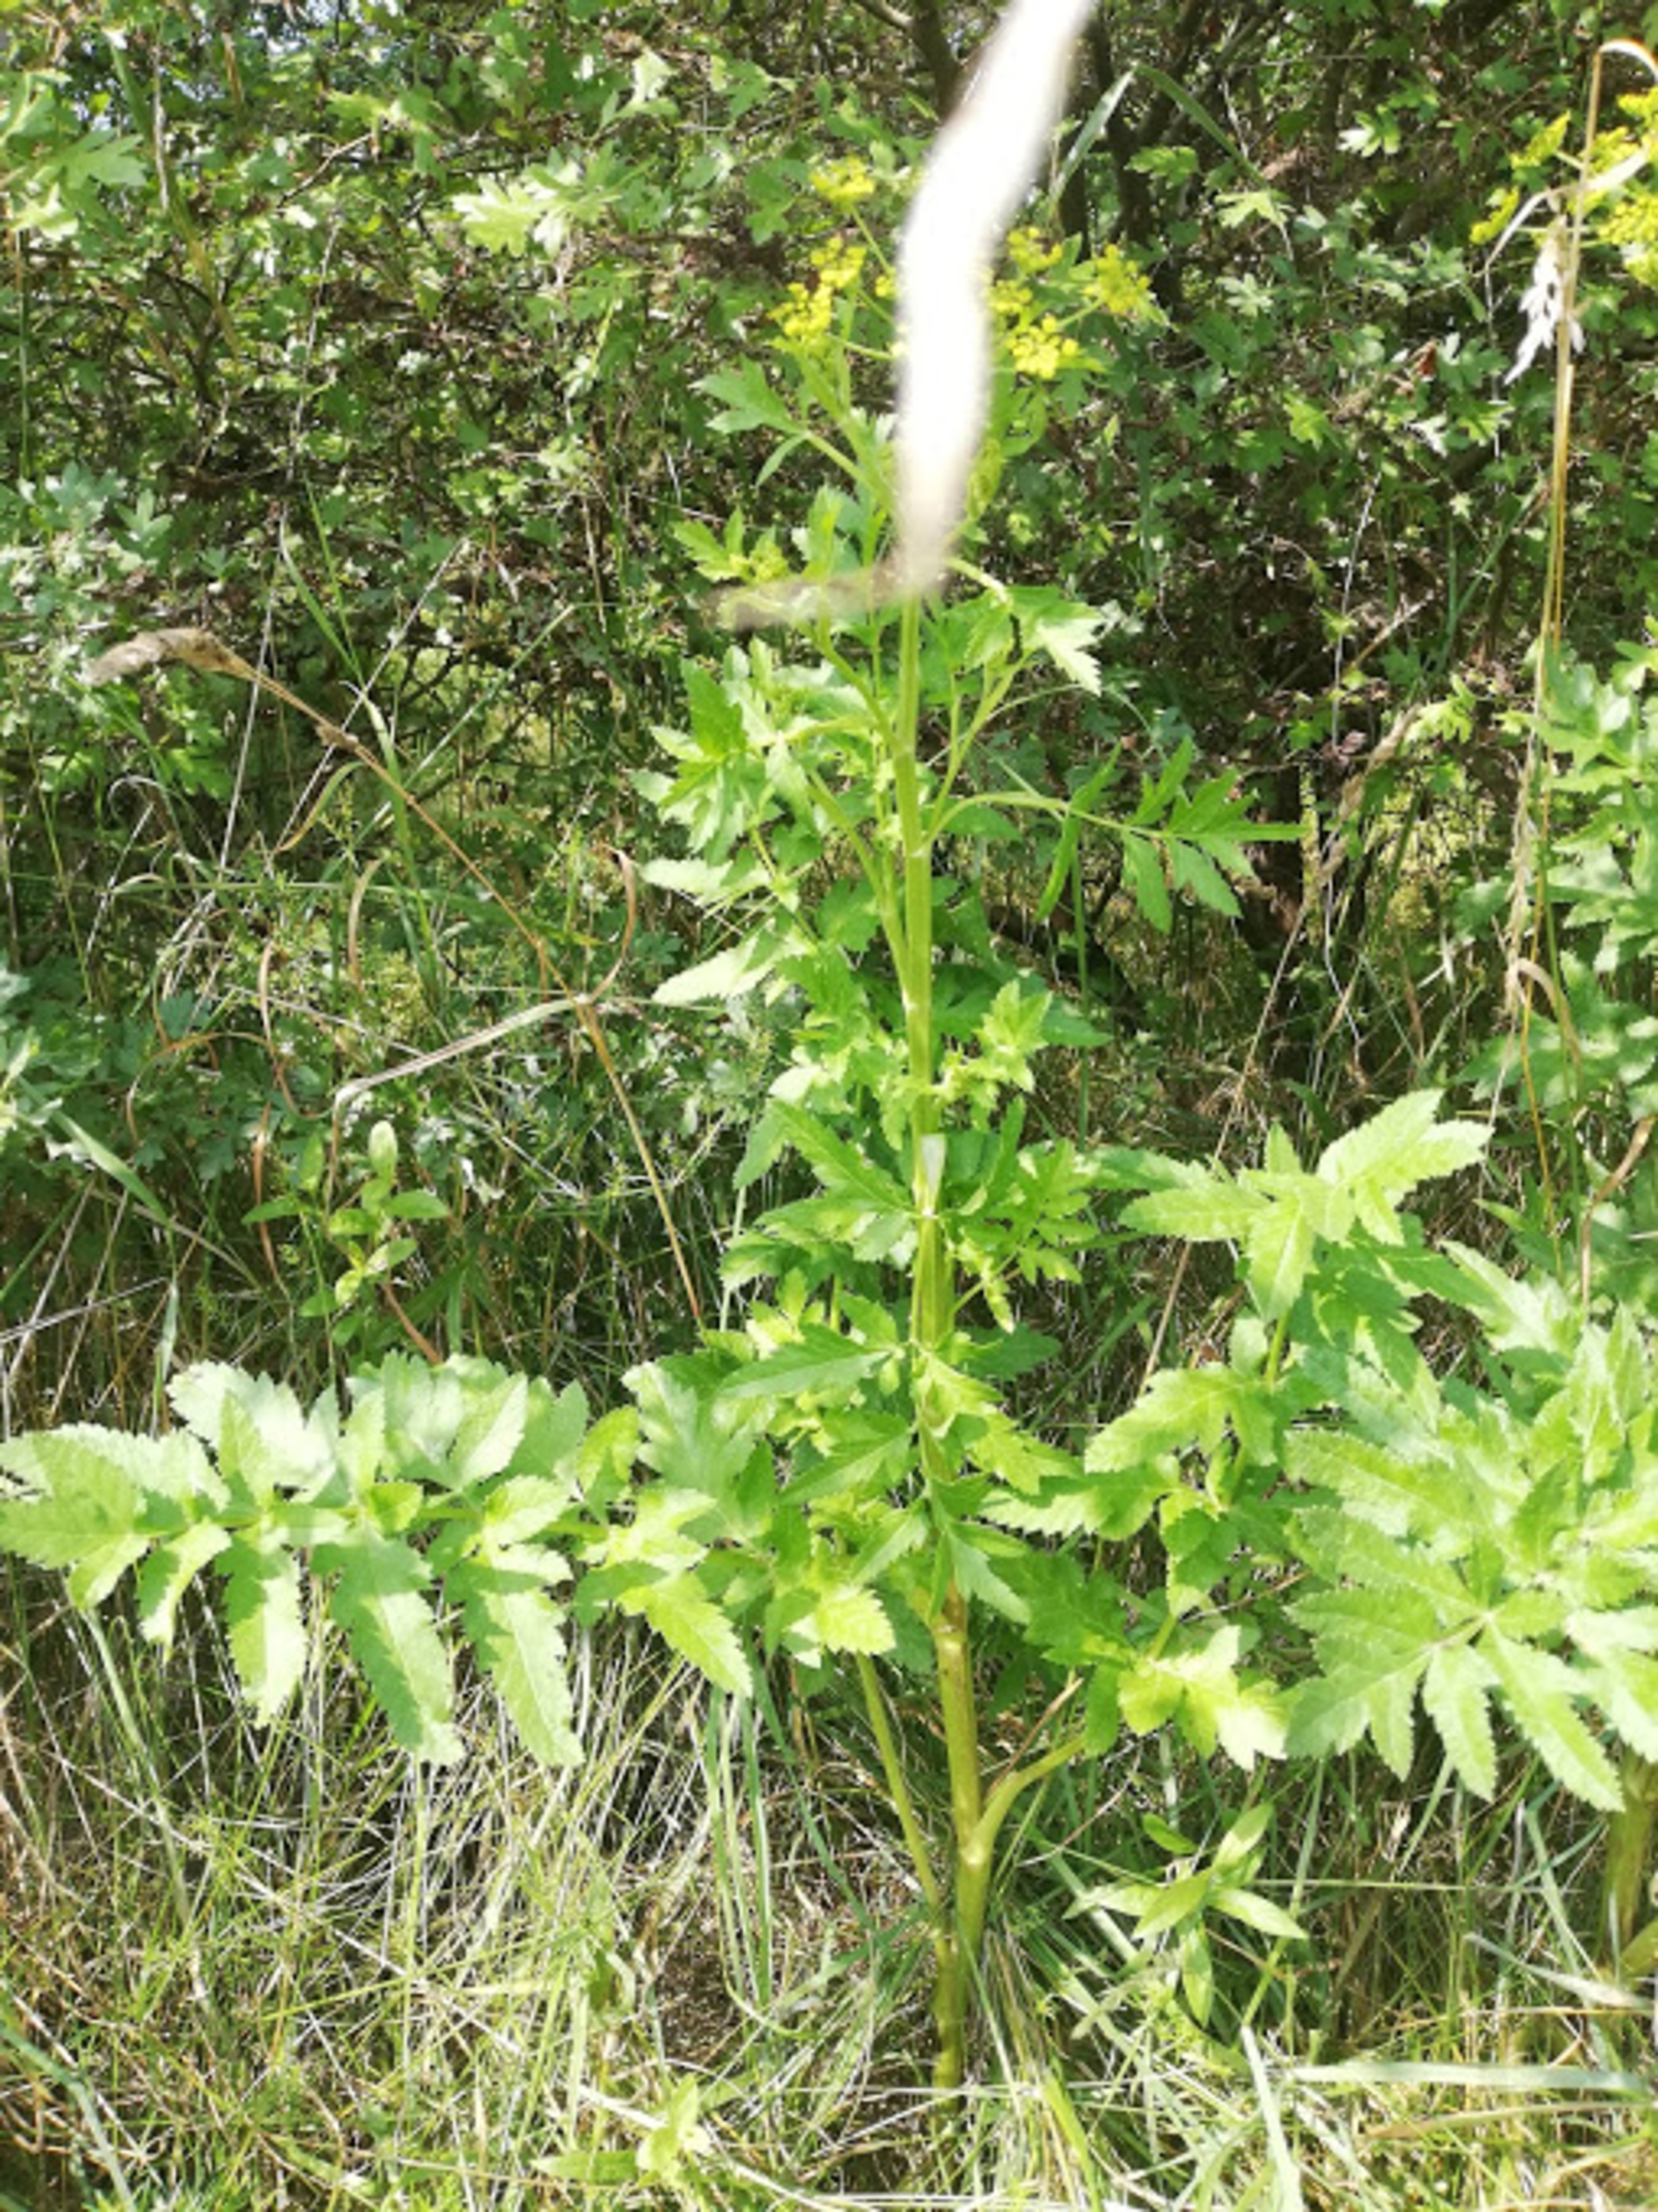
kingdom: Plantae
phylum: Tracheophyta
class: Magnoliopsida
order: Apiales
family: Apiaceae
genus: Pastinaca
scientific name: Pastinaca sativa
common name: Pastinak
